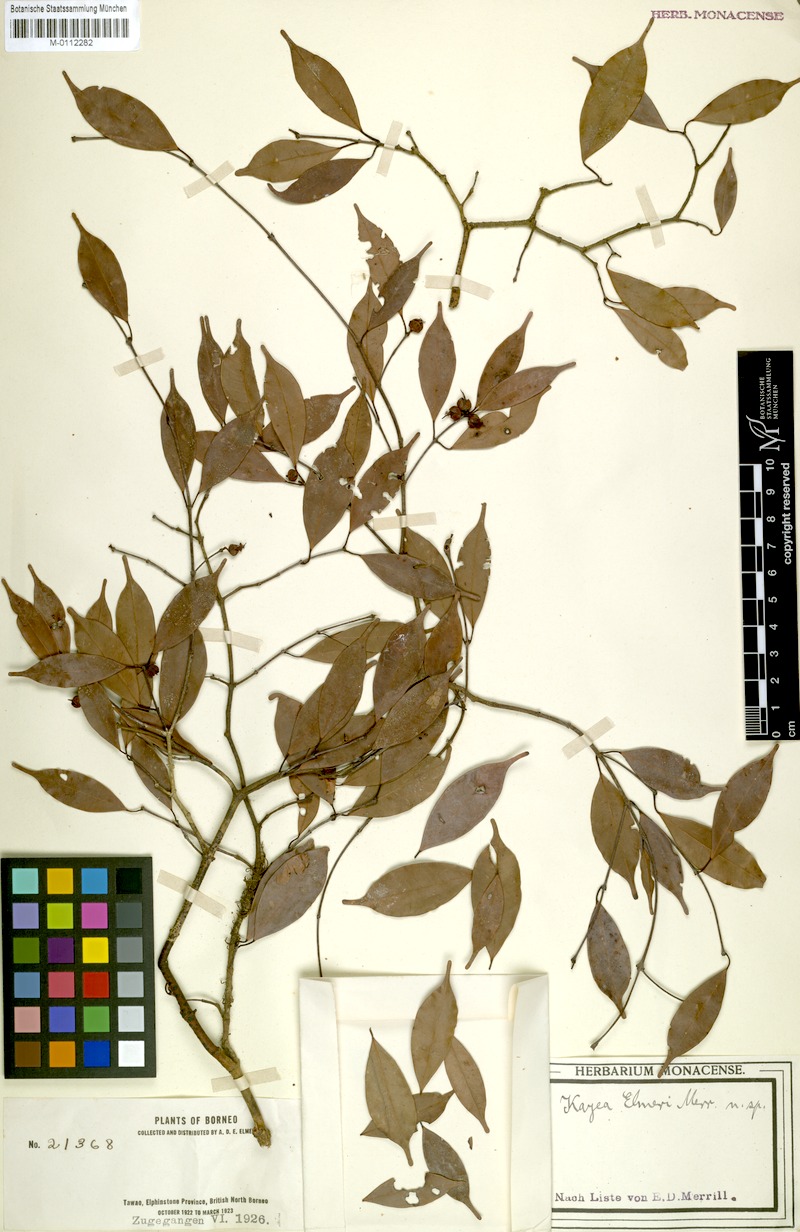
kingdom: Plantae
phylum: Tracheophyta
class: Magnoliopsida
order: Malpighiales
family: Calophyllaceae
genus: Kayea
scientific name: Kayea elmeri
